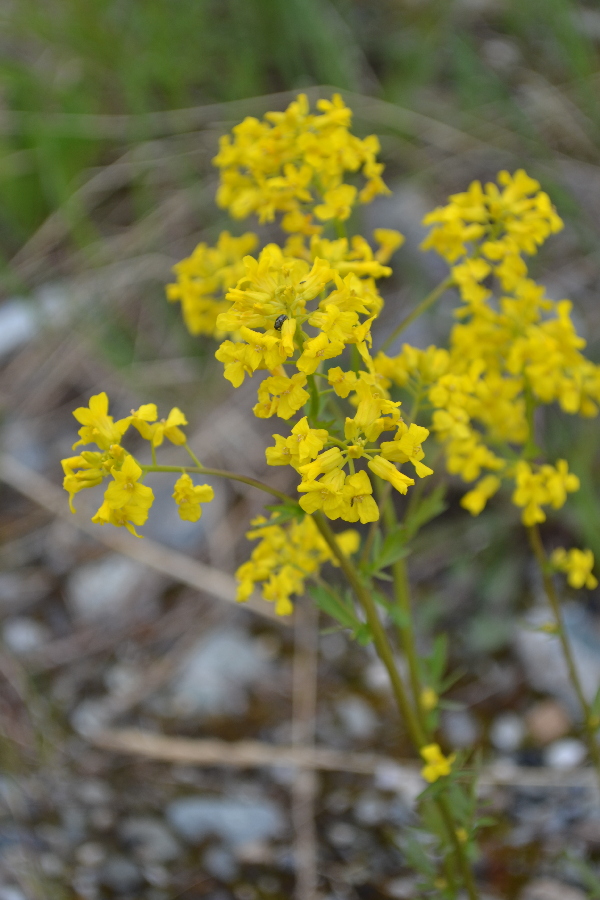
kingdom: Plantae
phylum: Tracheophyta
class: Magnoliopsida
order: Brassicales
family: Brassicaceae
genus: Barbarea
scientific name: Barbarea vulgaris
